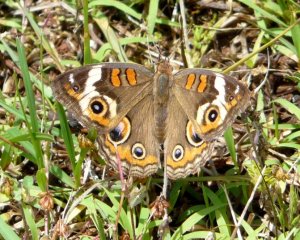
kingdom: Animalia
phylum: Arthropoda
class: Insecta
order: Lepidoptera
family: Nymphalidae
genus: Junonia
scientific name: Junonia coenia
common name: Common Buckeye
